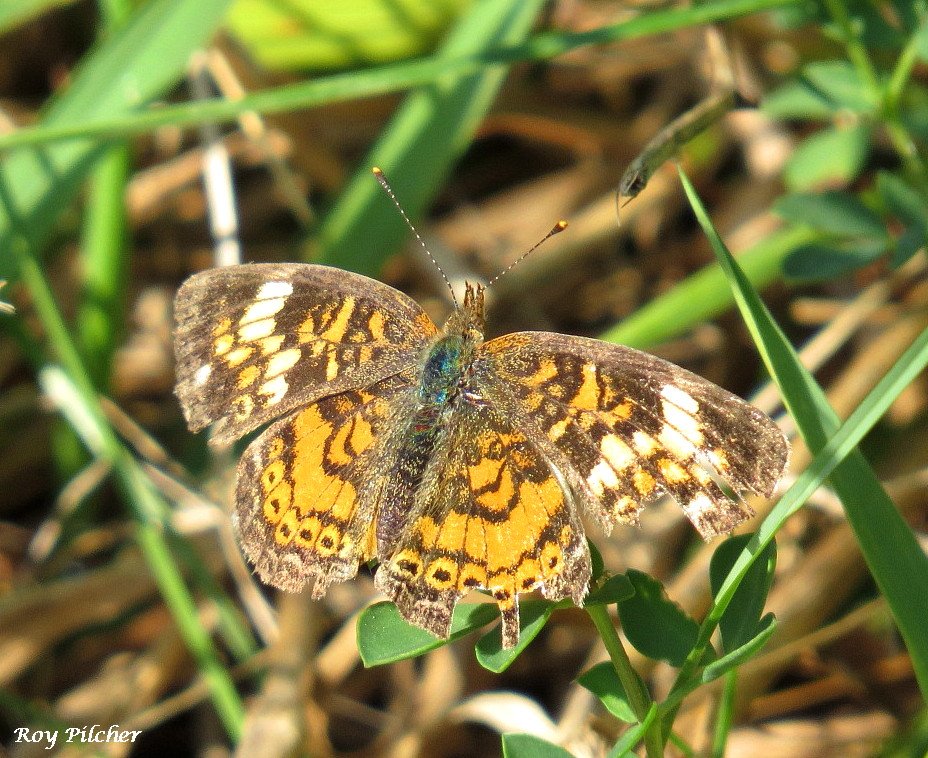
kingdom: Animalia
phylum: Arthropoda
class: Insecta
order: Lepidoptera
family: Nymphalidae
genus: Phyciodes
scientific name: Phyciodes tharos
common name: Pearl Crescent
